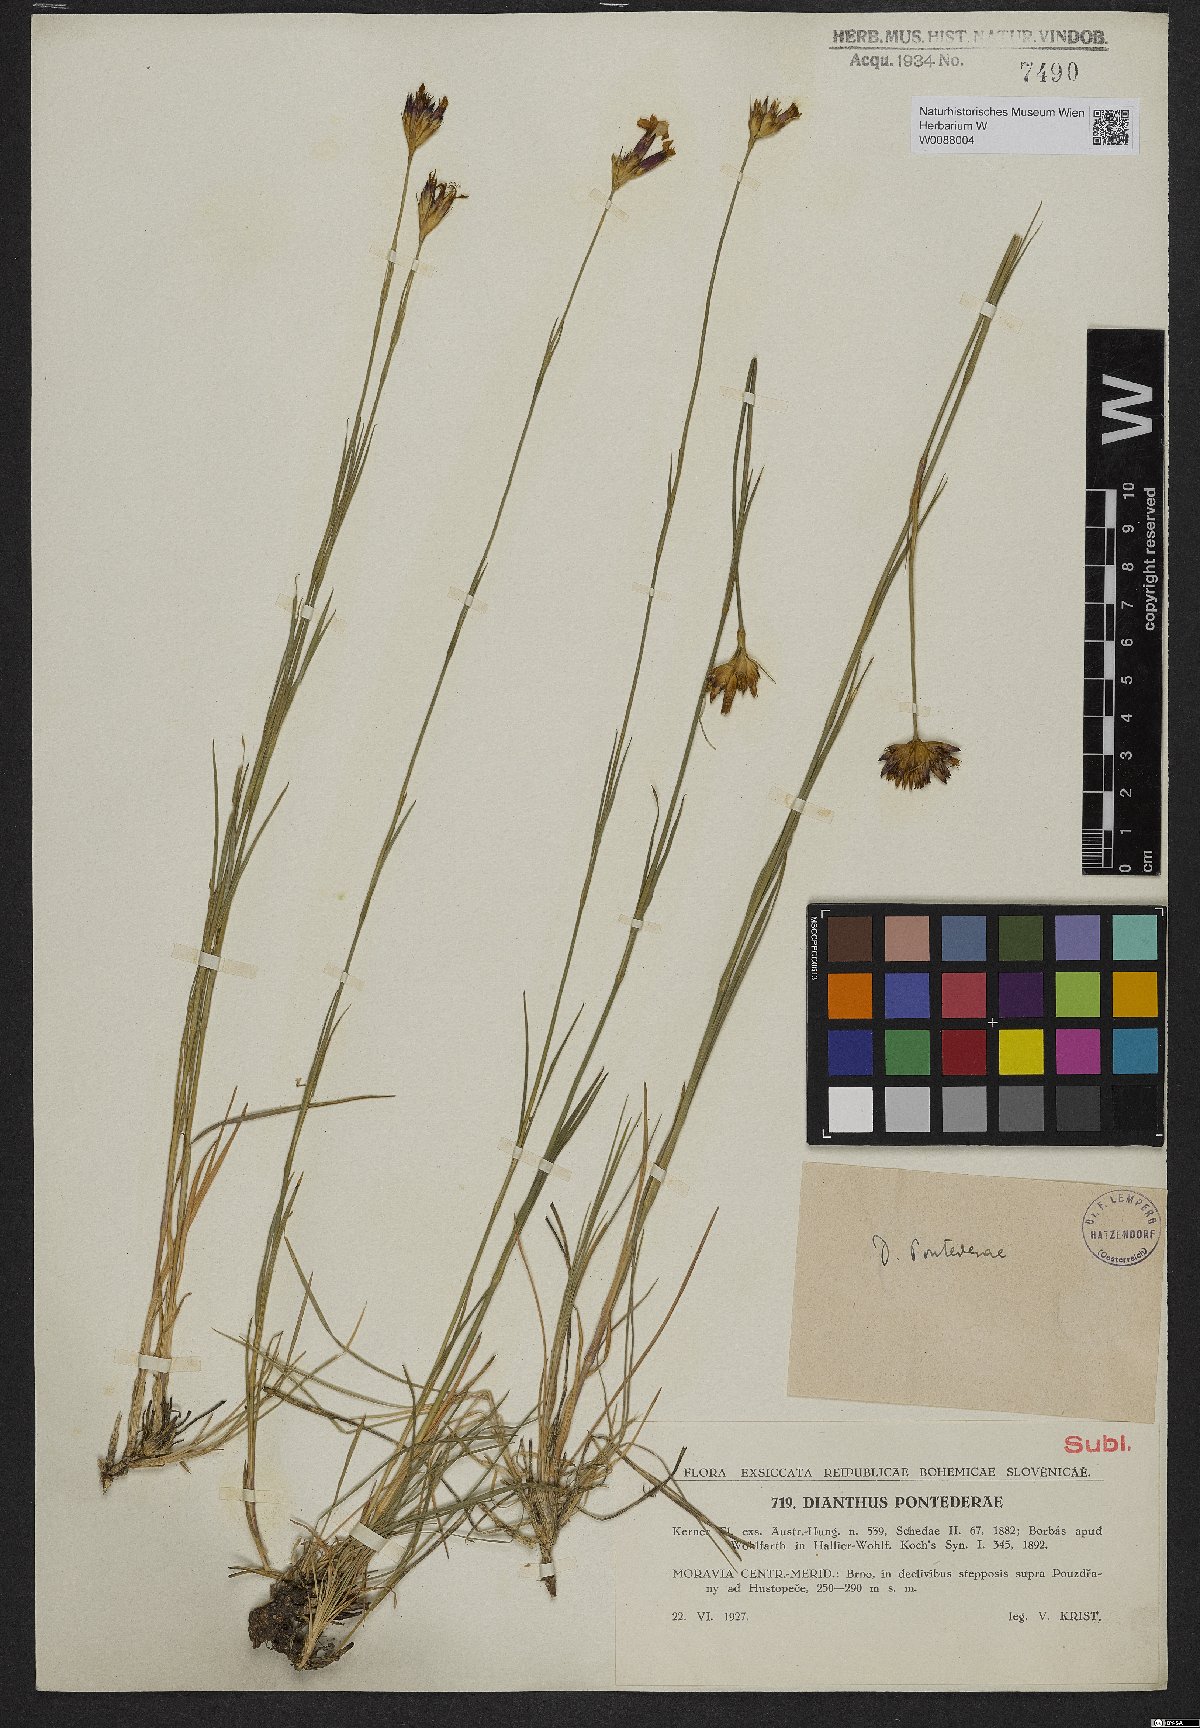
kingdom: Plantae
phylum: Tracheophyta
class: Magnoliopsida
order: Caryophyllales
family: Caryophyllaceae
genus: Dianthus
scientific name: Dianthus pontederae
